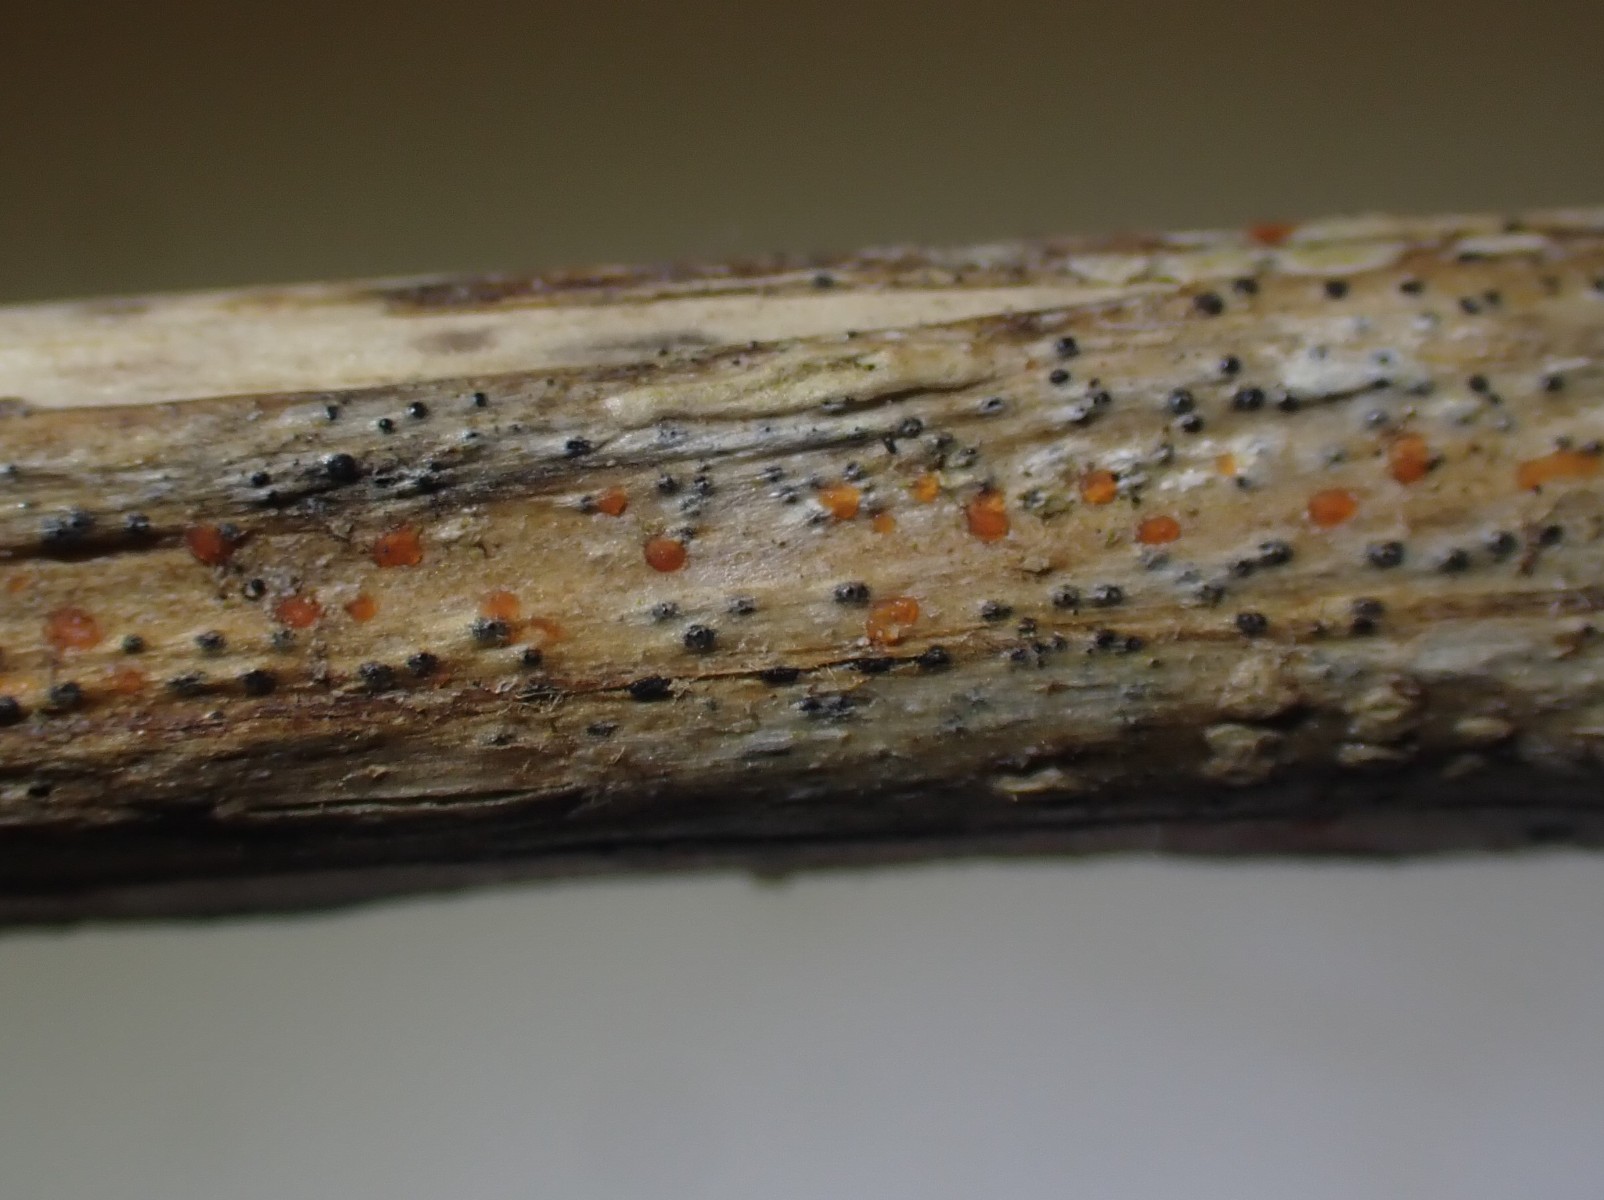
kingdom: Fungi
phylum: Ascomycota
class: Leotiomycetes
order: Helotiales
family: Calloriaceae
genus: Calloria
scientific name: Calloria urticae
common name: nælde-orangeskive
